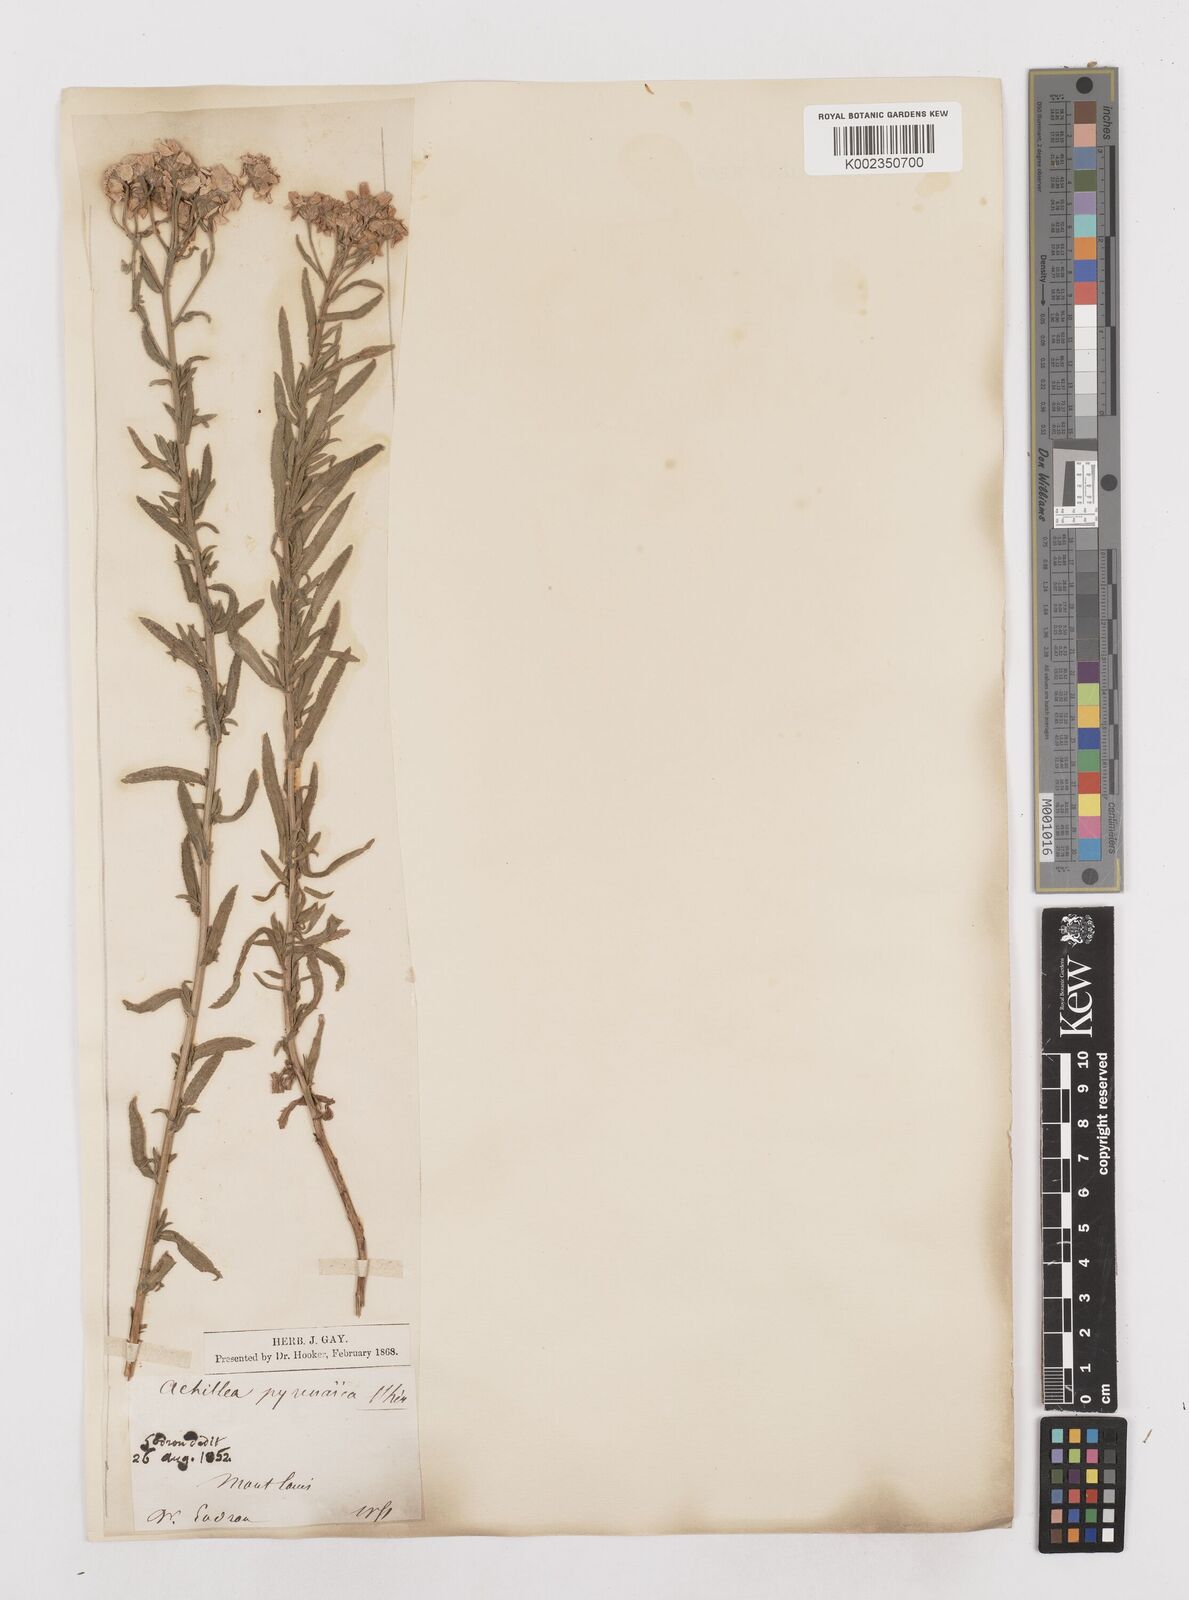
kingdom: Plantae
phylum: Tracheophyta
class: Magnoliopsida
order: Asterales
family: Asteraceae
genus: Achillea
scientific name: Achillea pyrenaica
